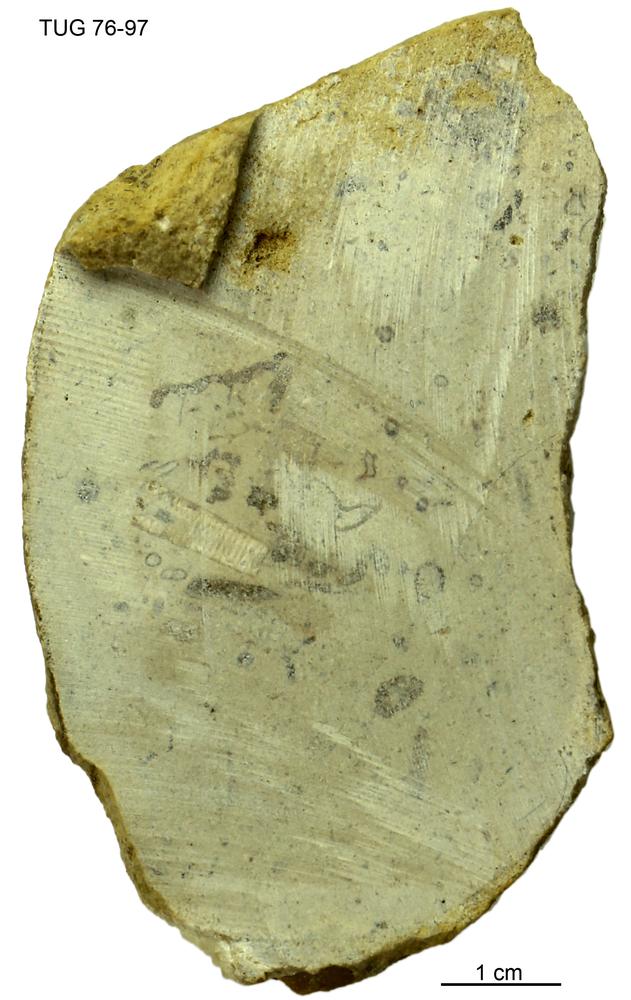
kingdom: Animalia
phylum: Mollusca
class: Cephalopoda
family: Estonioceratidae
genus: Estonioceras
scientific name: Estonioceras
